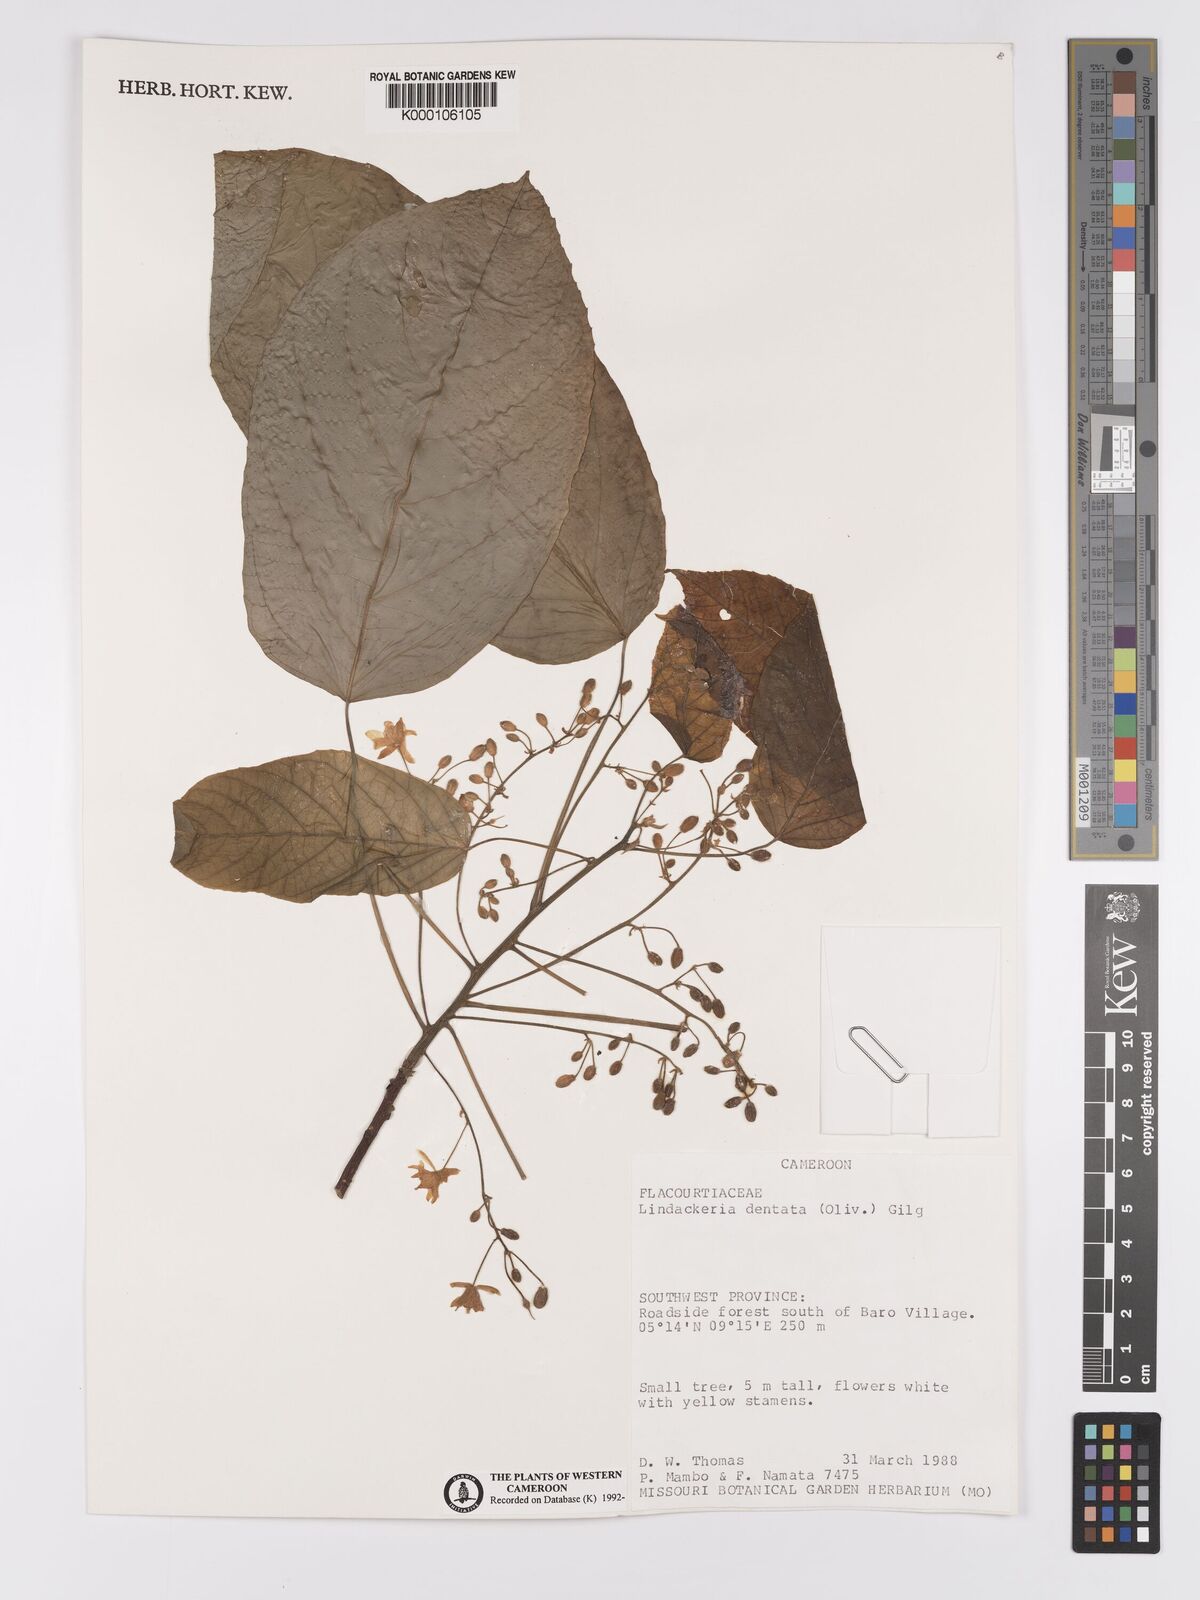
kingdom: Plantae
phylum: Tracheophyta
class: Magnoliopsida
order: Malpighiales
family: Achariaceae
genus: Lindackeria
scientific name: Lindackeria dentata
